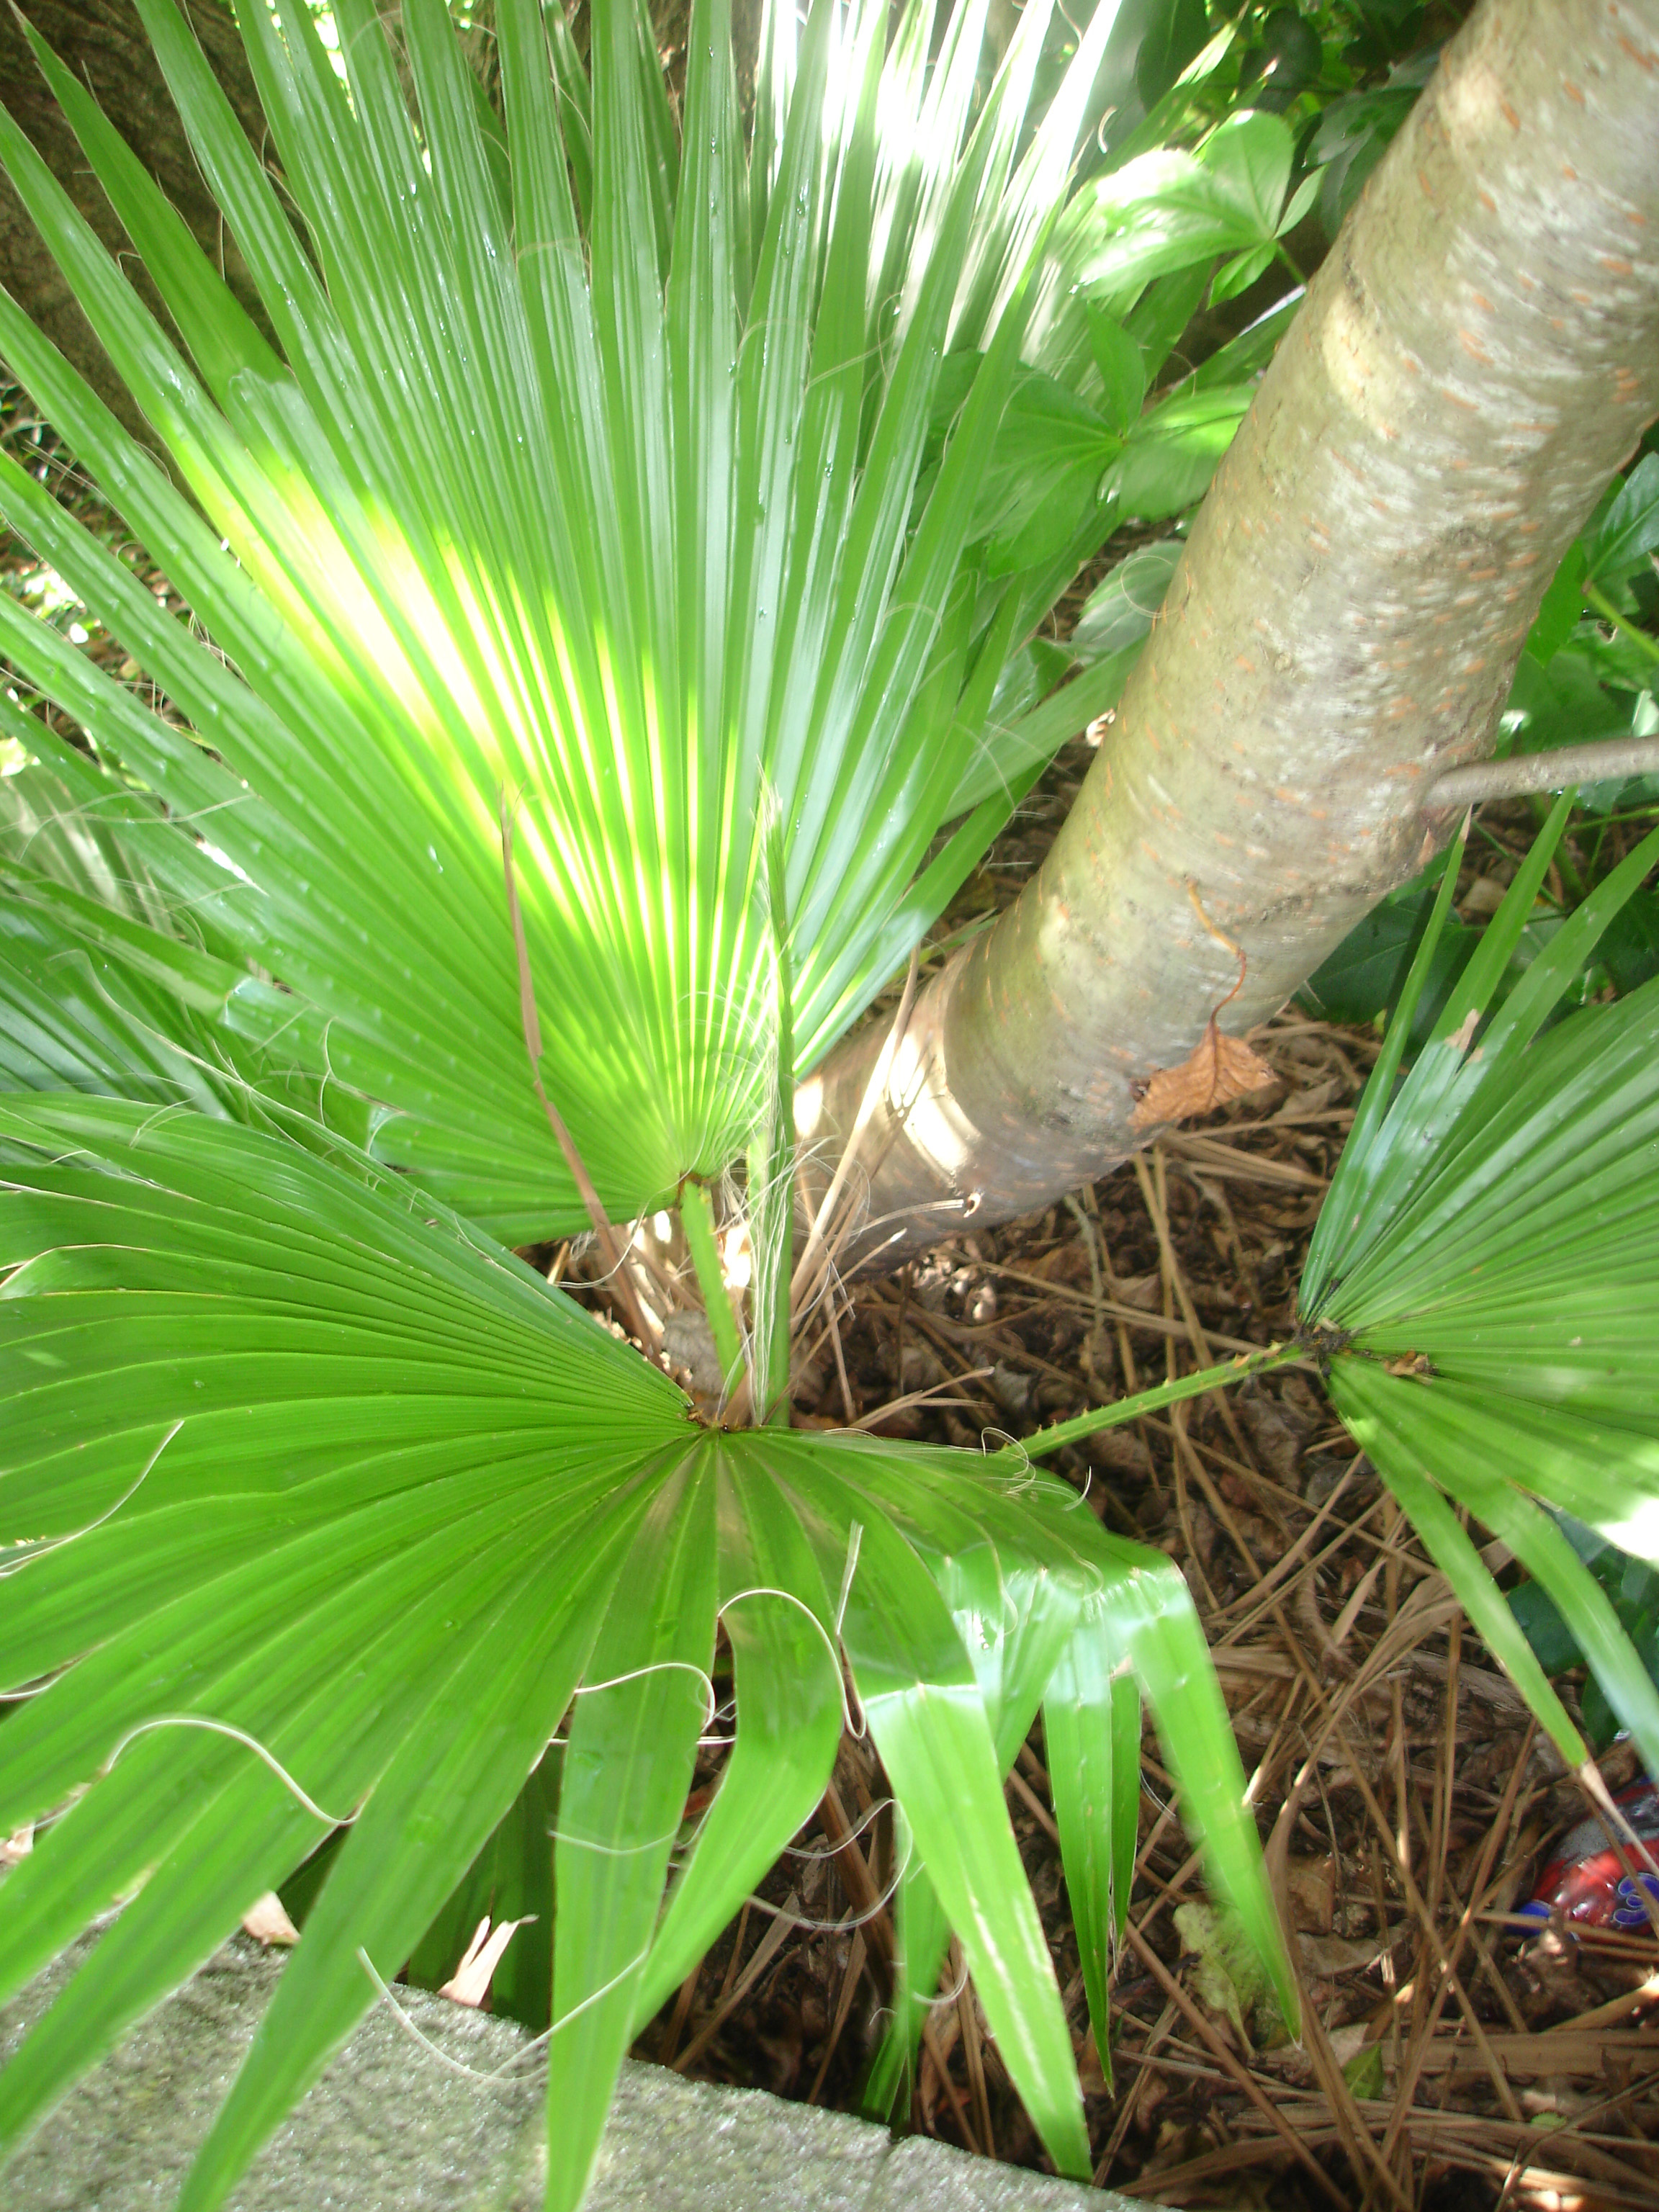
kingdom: Plantae
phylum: Tracheophyta
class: Liliopsida
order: Arecales
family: Arecaceae
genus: Washingtonia
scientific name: Washingtonia robusta
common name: Mexican fan palm
